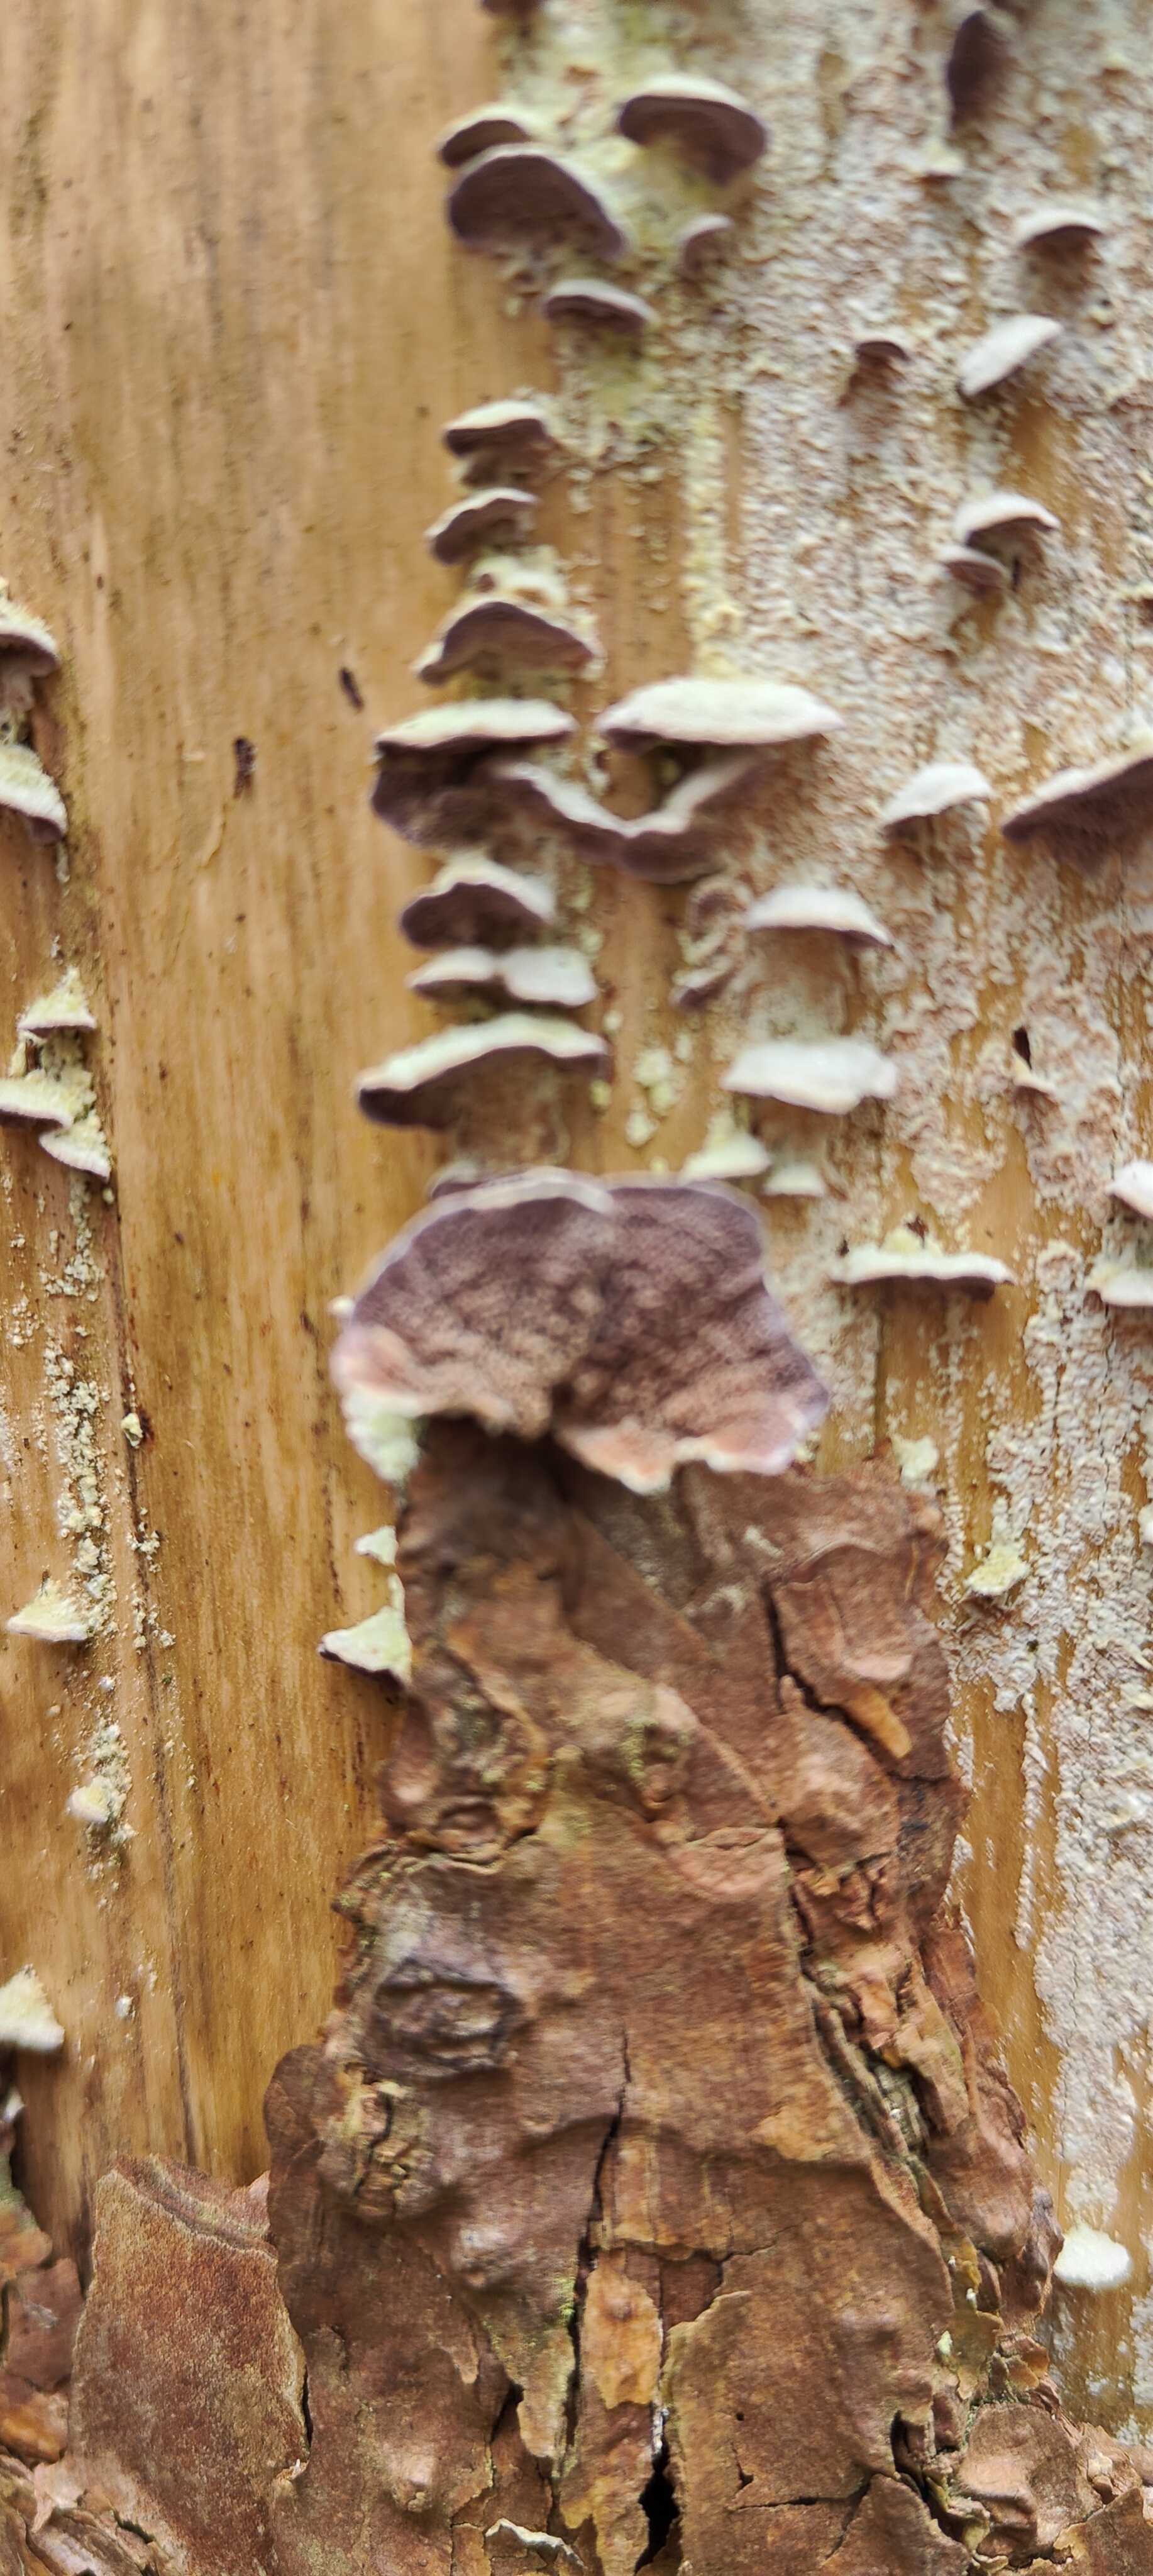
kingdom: Fungi
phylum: Basidiomycota
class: Agaricomycetes
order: Hymenochaetales
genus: Trichaptum
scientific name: Trichaptum abietinum
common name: almindelig violporesvamp
